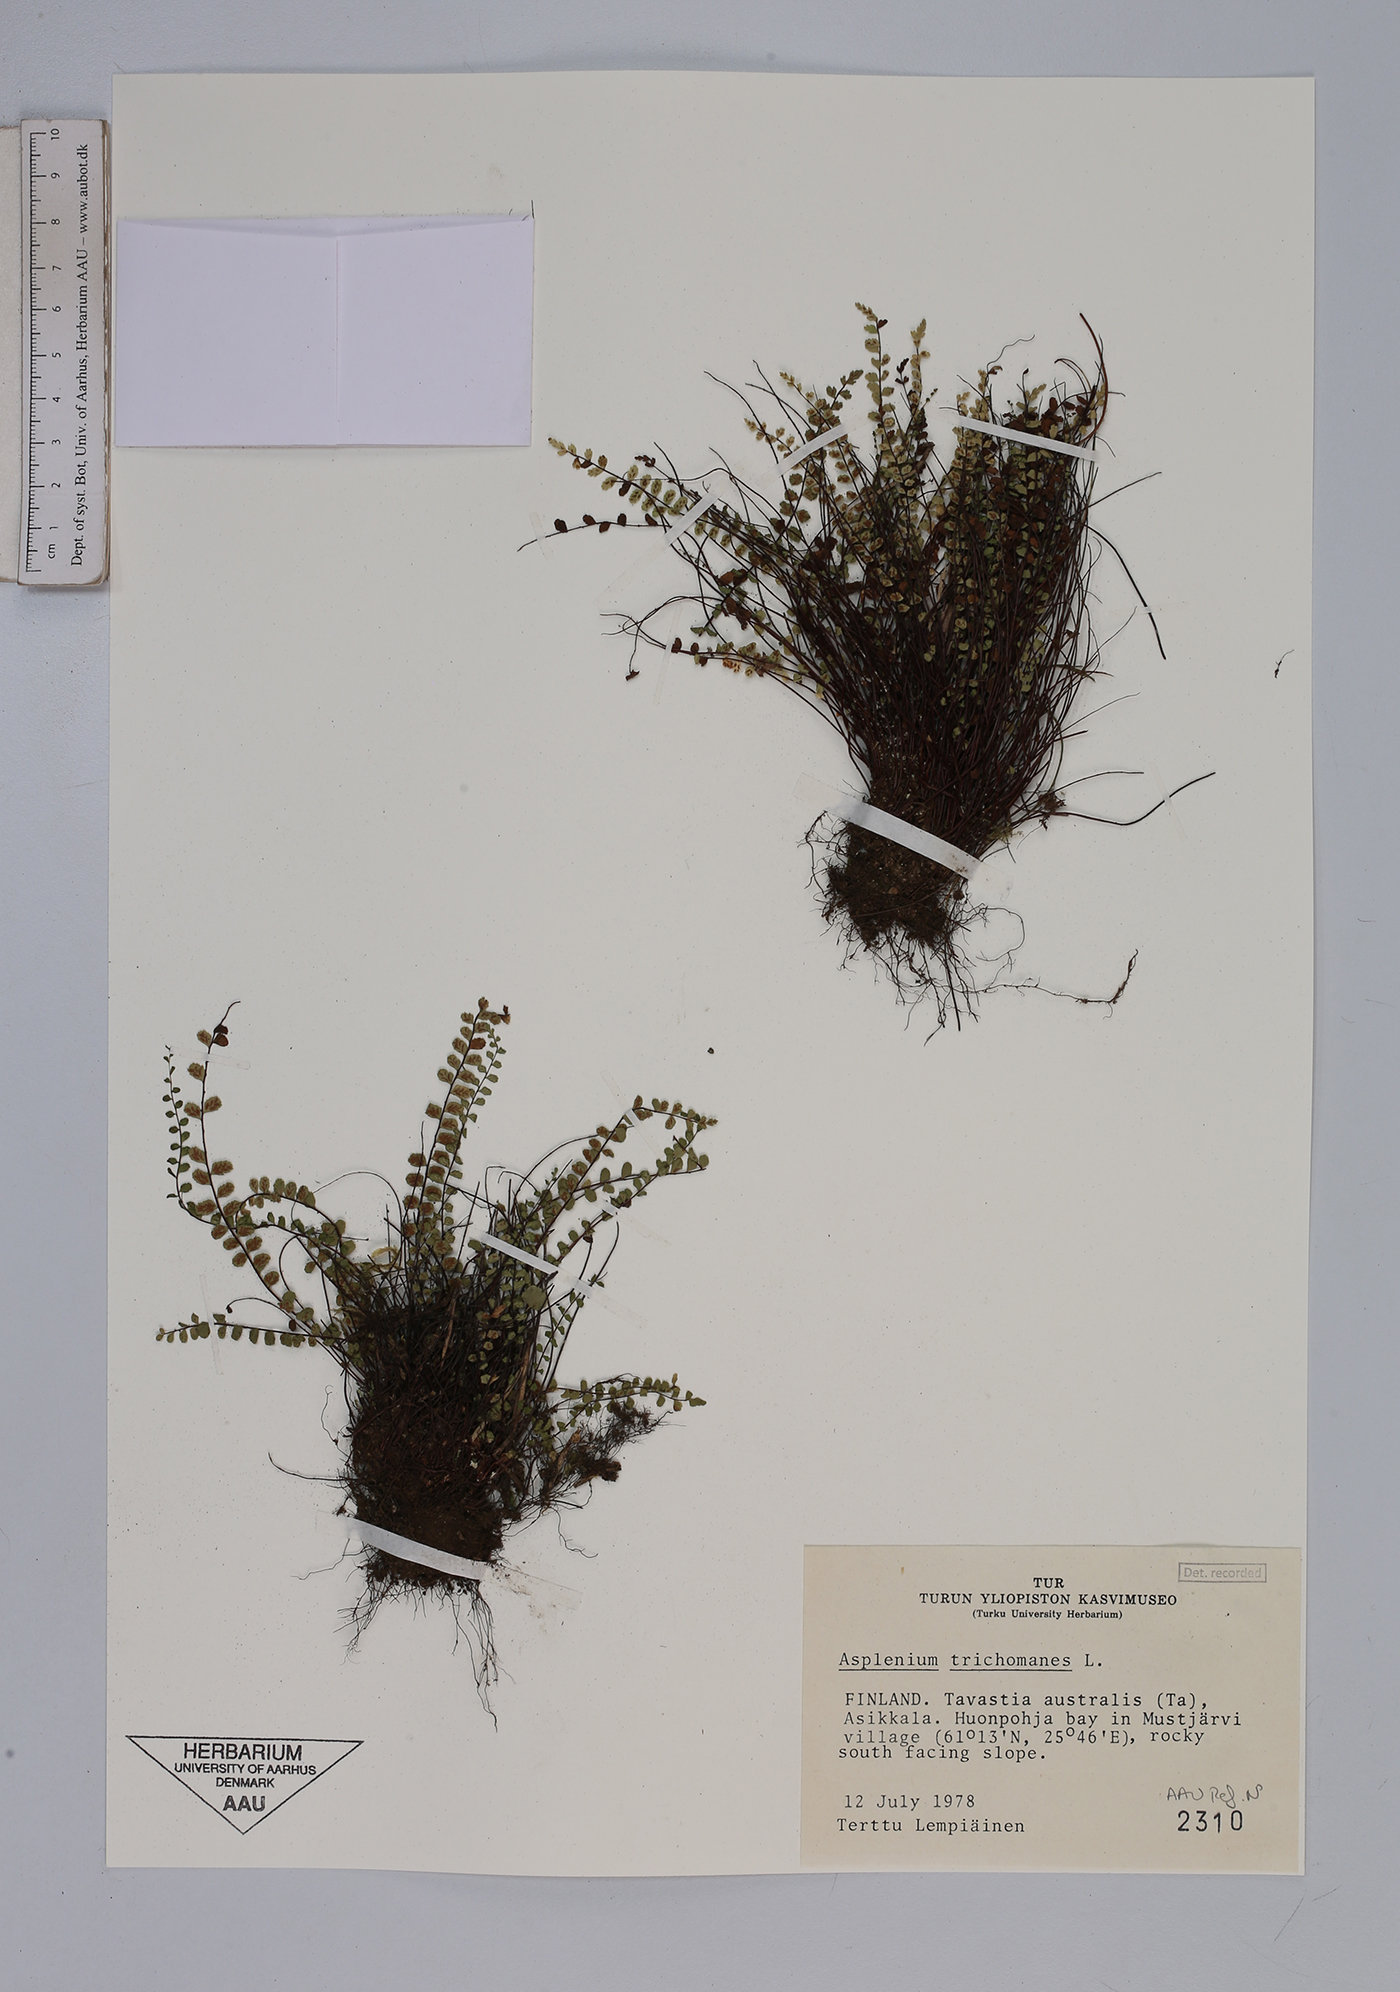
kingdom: Plantae
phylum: Tracheophyta
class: Polypodiopsida
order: Polypodiales
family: Aspleniaceae
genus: Asplenium
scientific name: Asplenium trichomanes
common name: Maidenhair spleenwort
